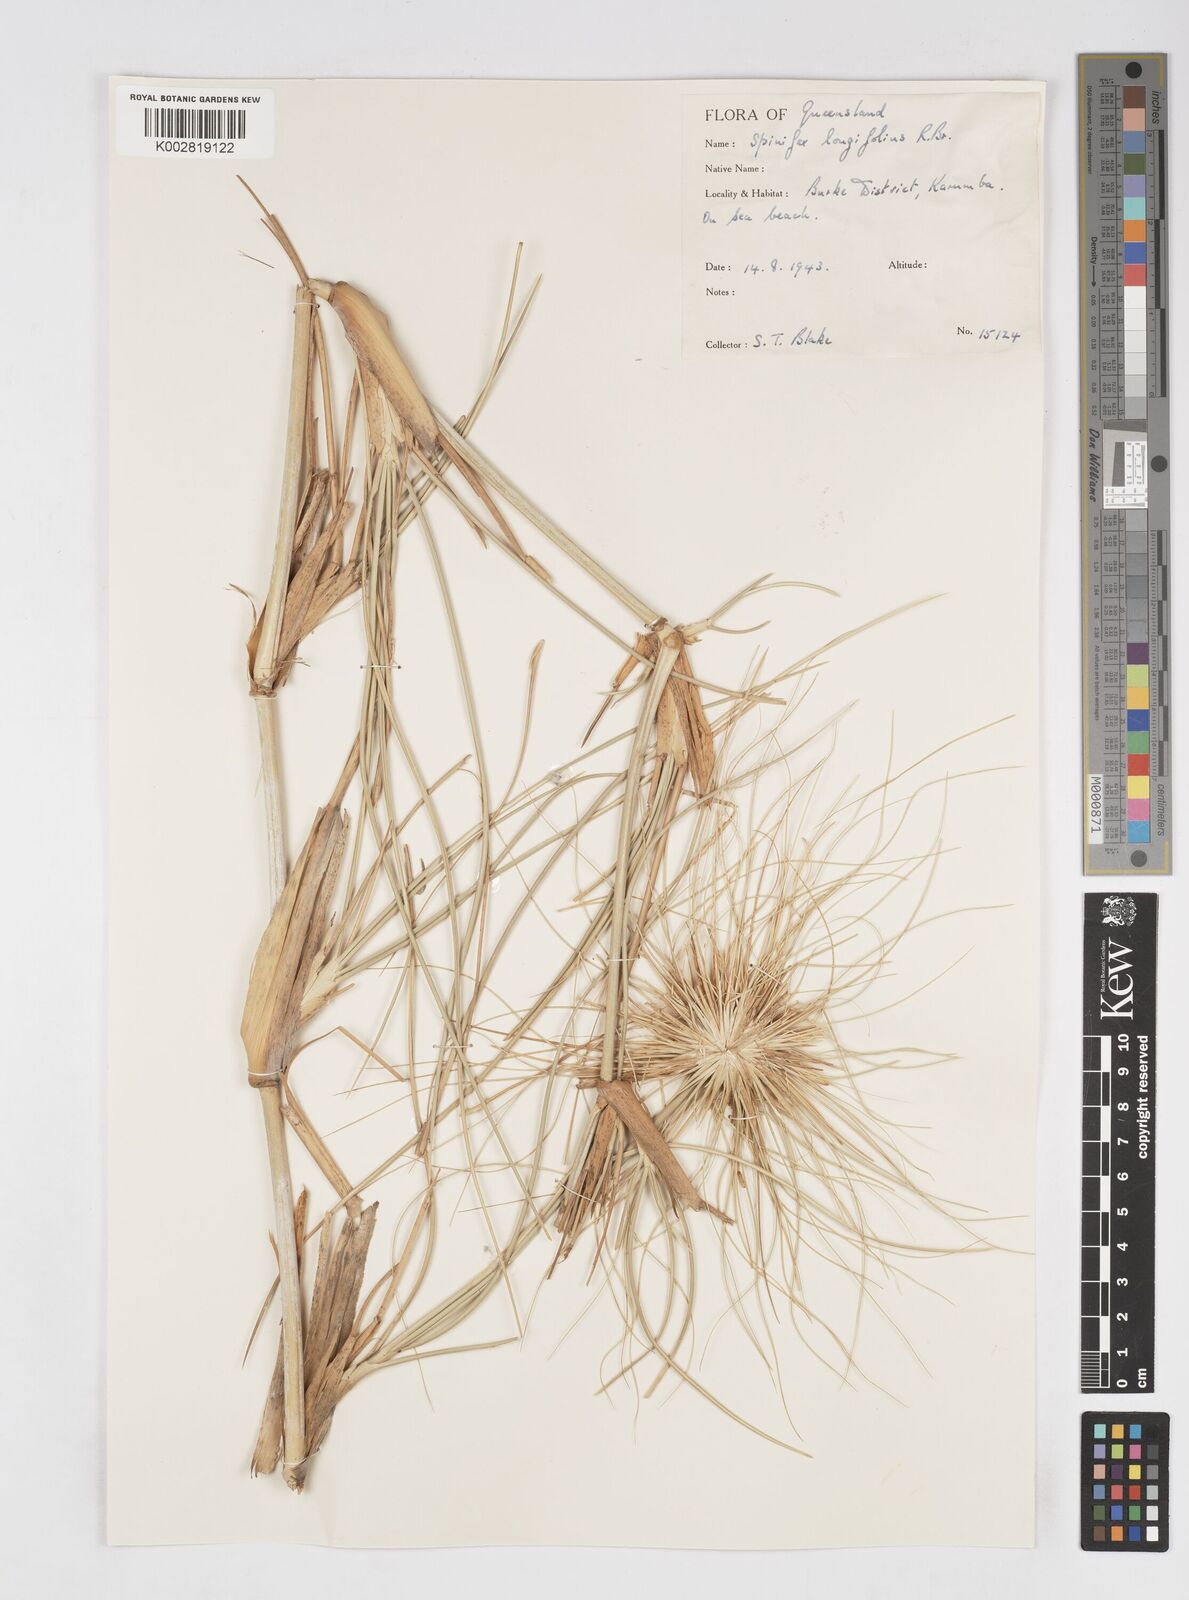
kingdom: Plantae
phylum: Tracheophyta
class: Liliopsida
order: Poales
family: Poaceae
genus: Spinifex
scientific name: Spinifex longifolius
